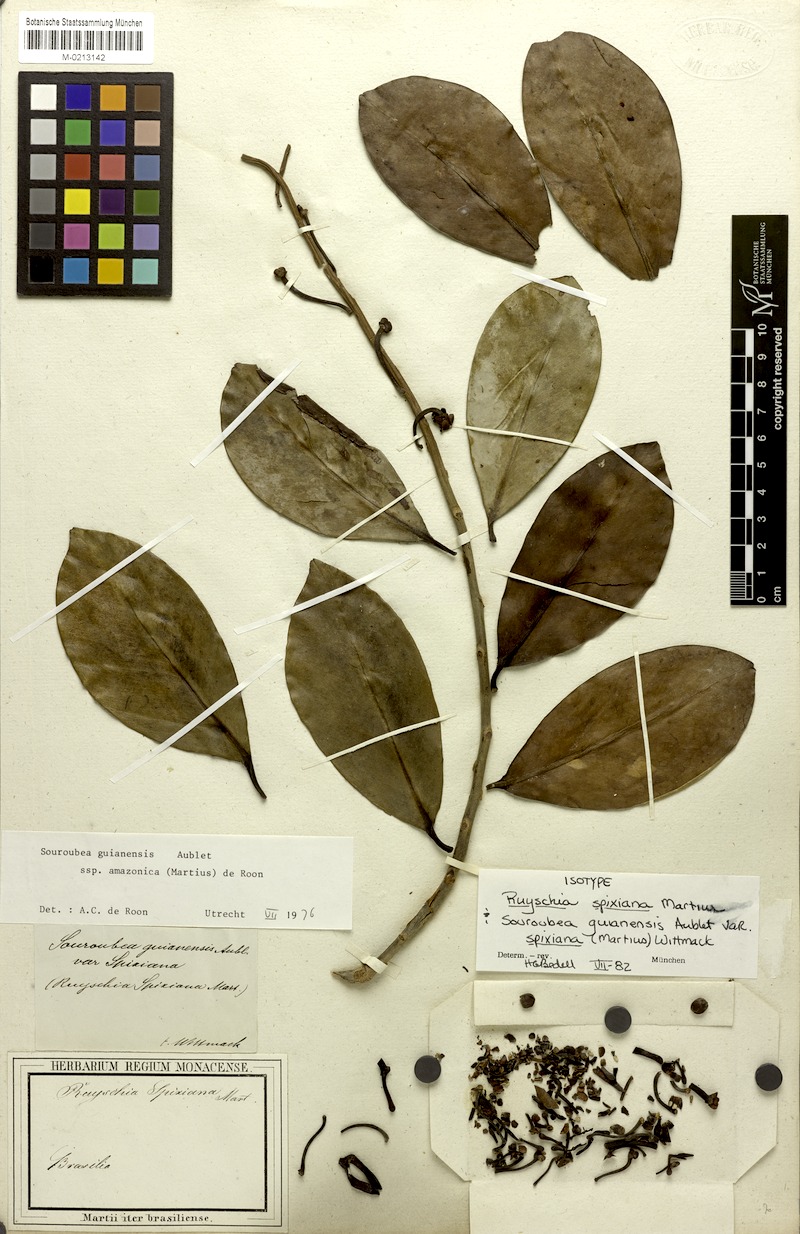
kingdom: Plantae
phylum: Tracheophyta
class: Magnoliopsida
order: Ericales
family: Marcgraviaceae
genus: Souroubea
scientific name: Souroubea guianensis
